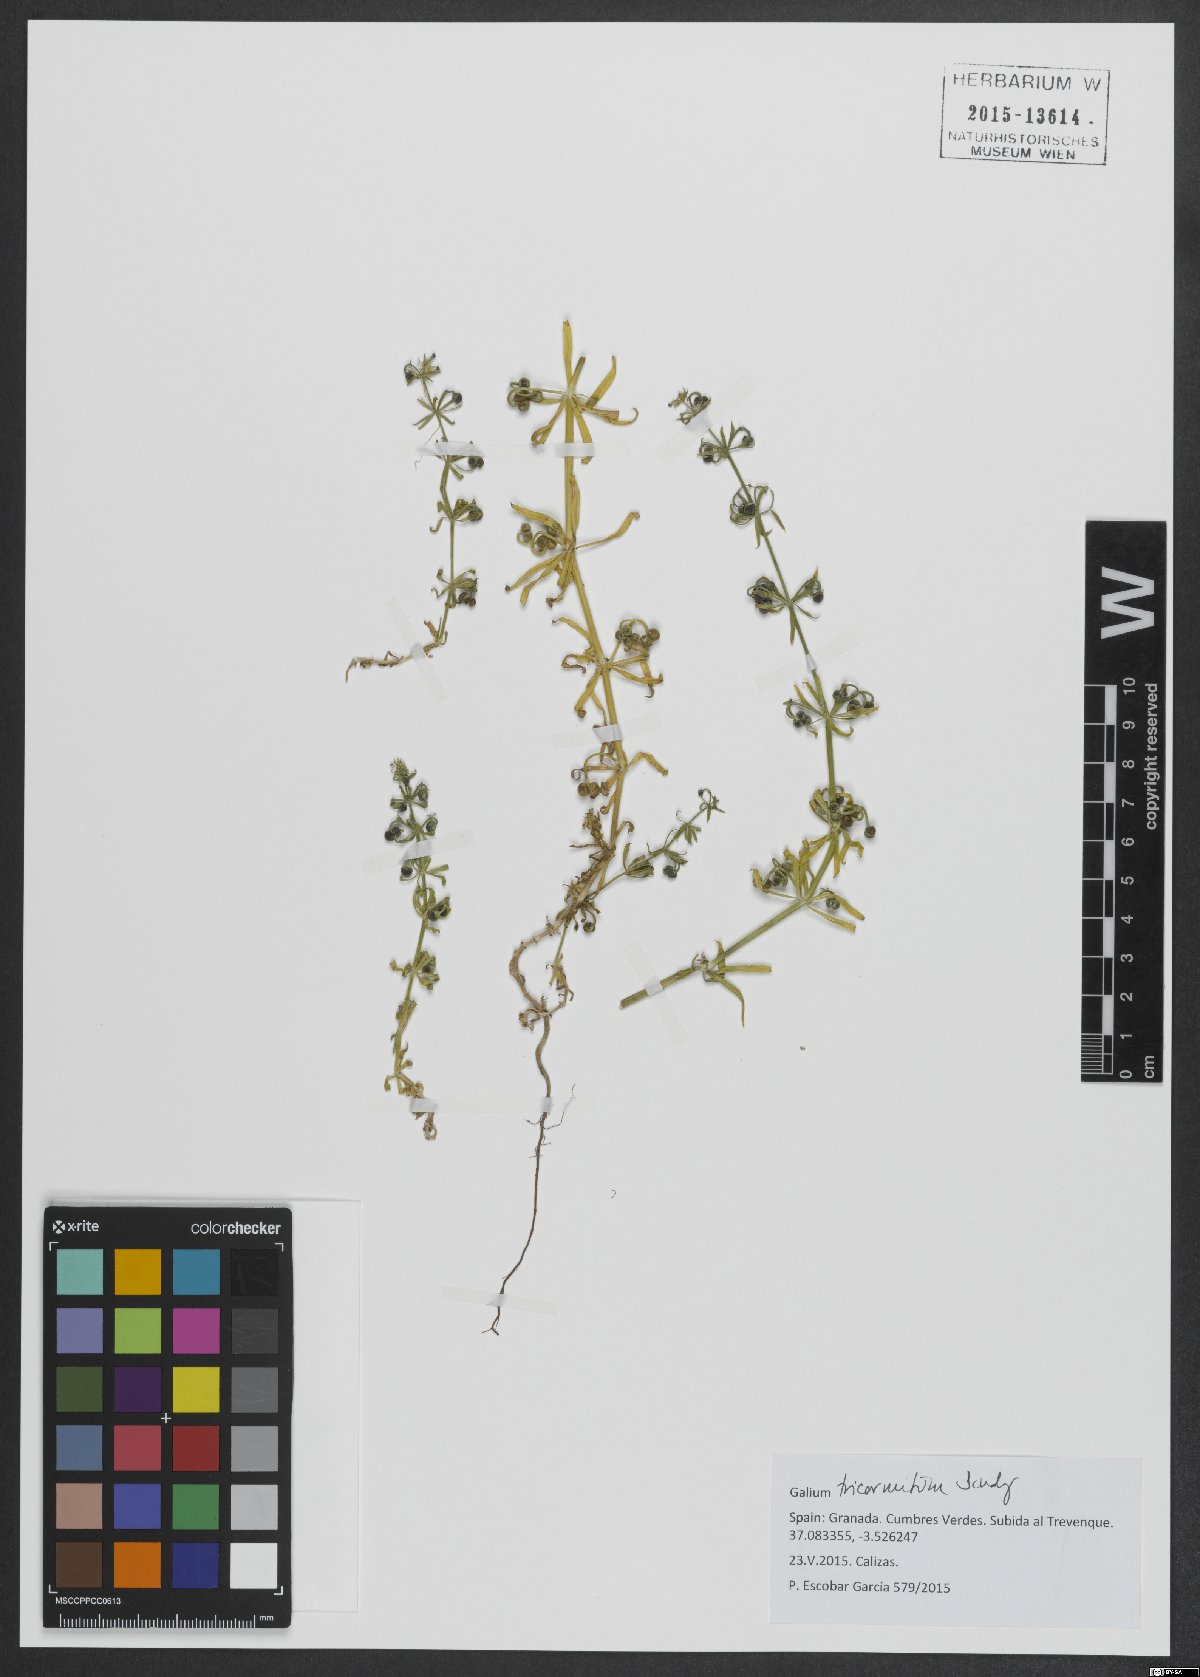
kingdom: Plantae
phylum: Tracheophyta
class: Magnoliopsida
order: Gentianales
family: Rubiaceae
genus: Galium
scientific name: Galium tricornutum
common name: Corn cleavers
